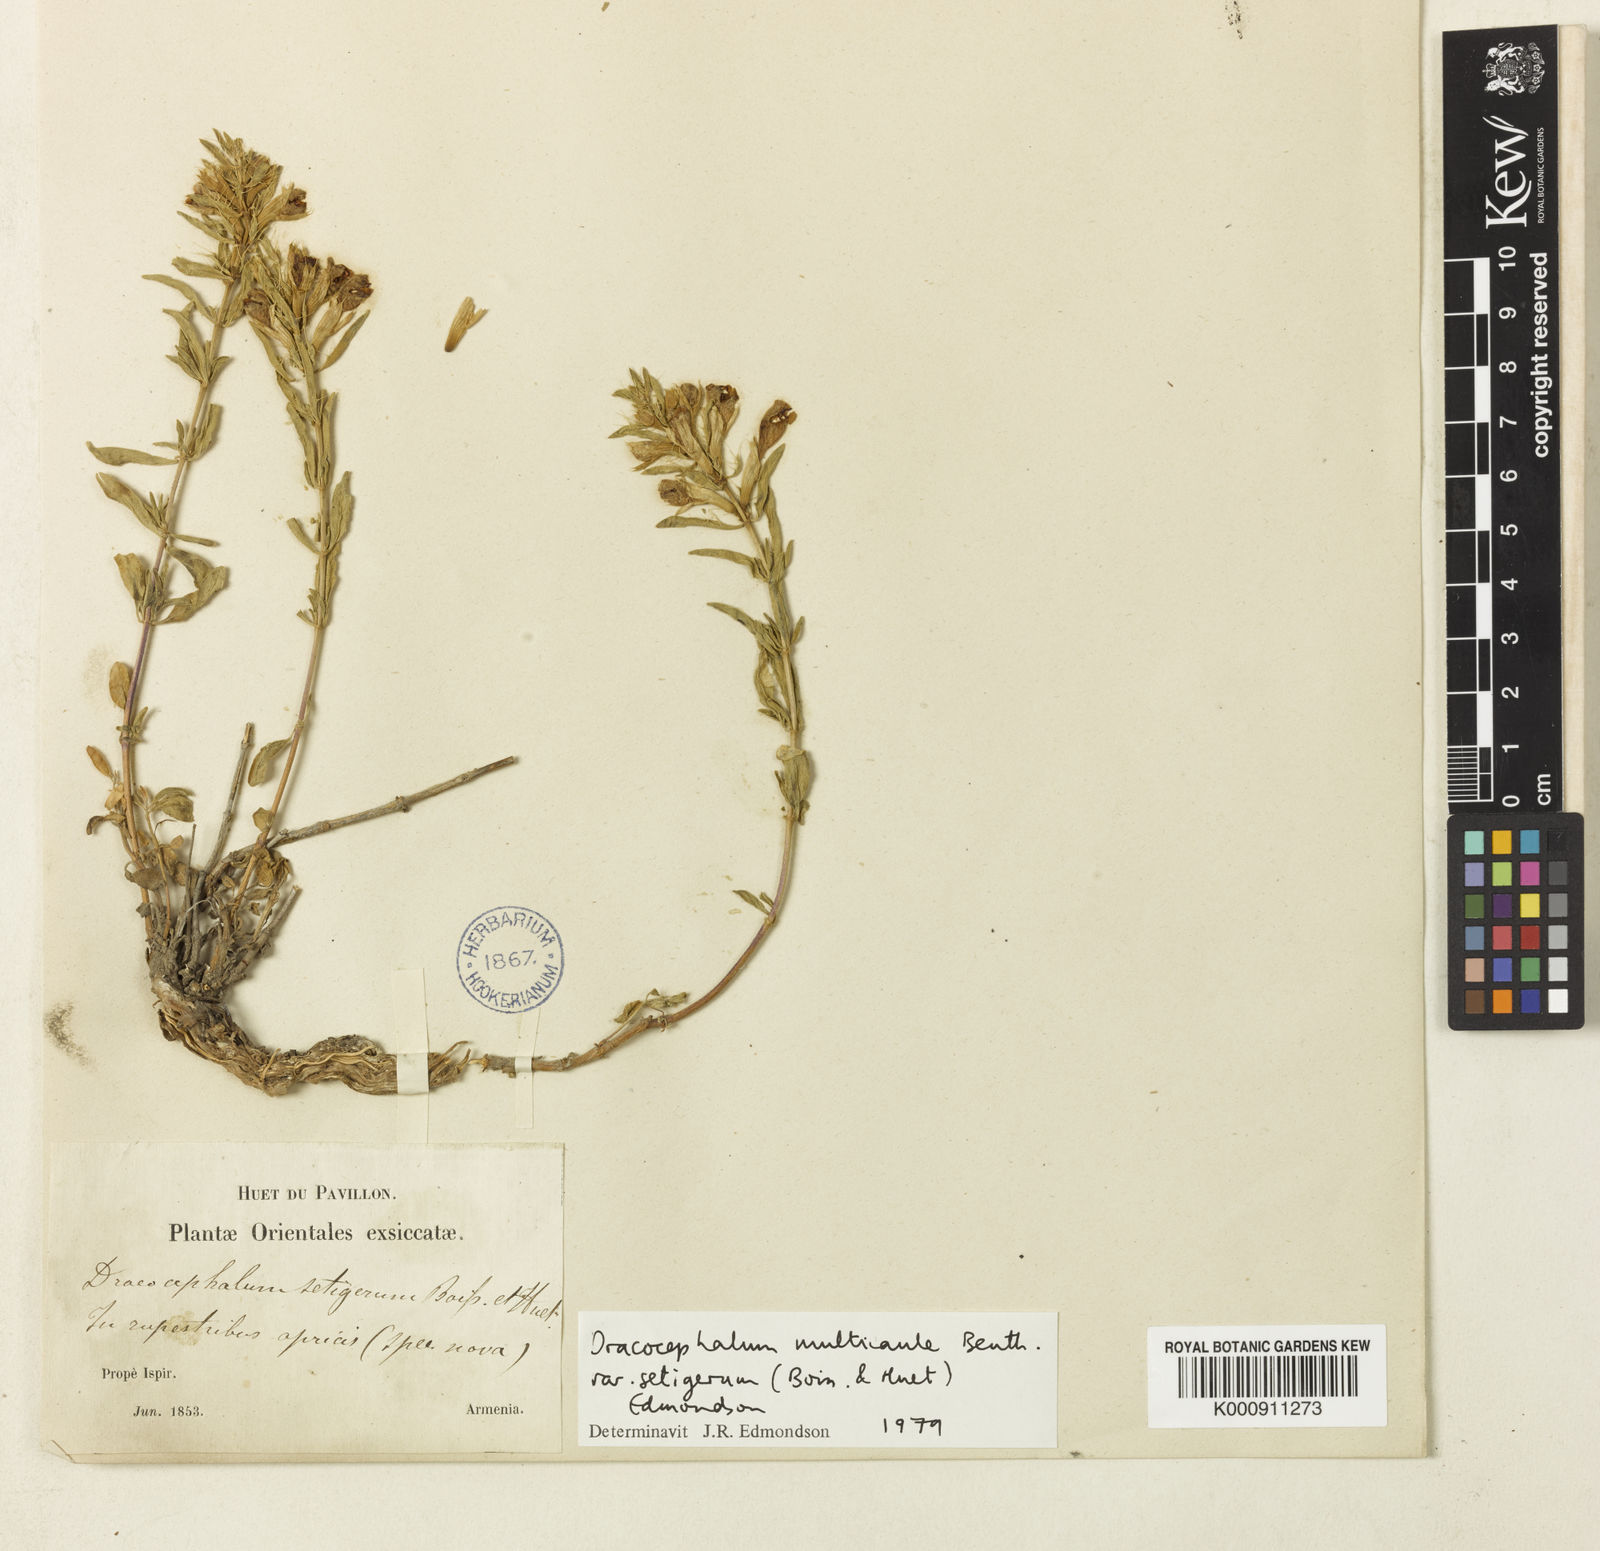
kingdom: Plantae
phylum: Tracheophyta
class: Magnoliopsida
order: Lamiales
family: Lamiaceae
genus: Dracocephalum
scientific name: Dracocephalum multicaule
